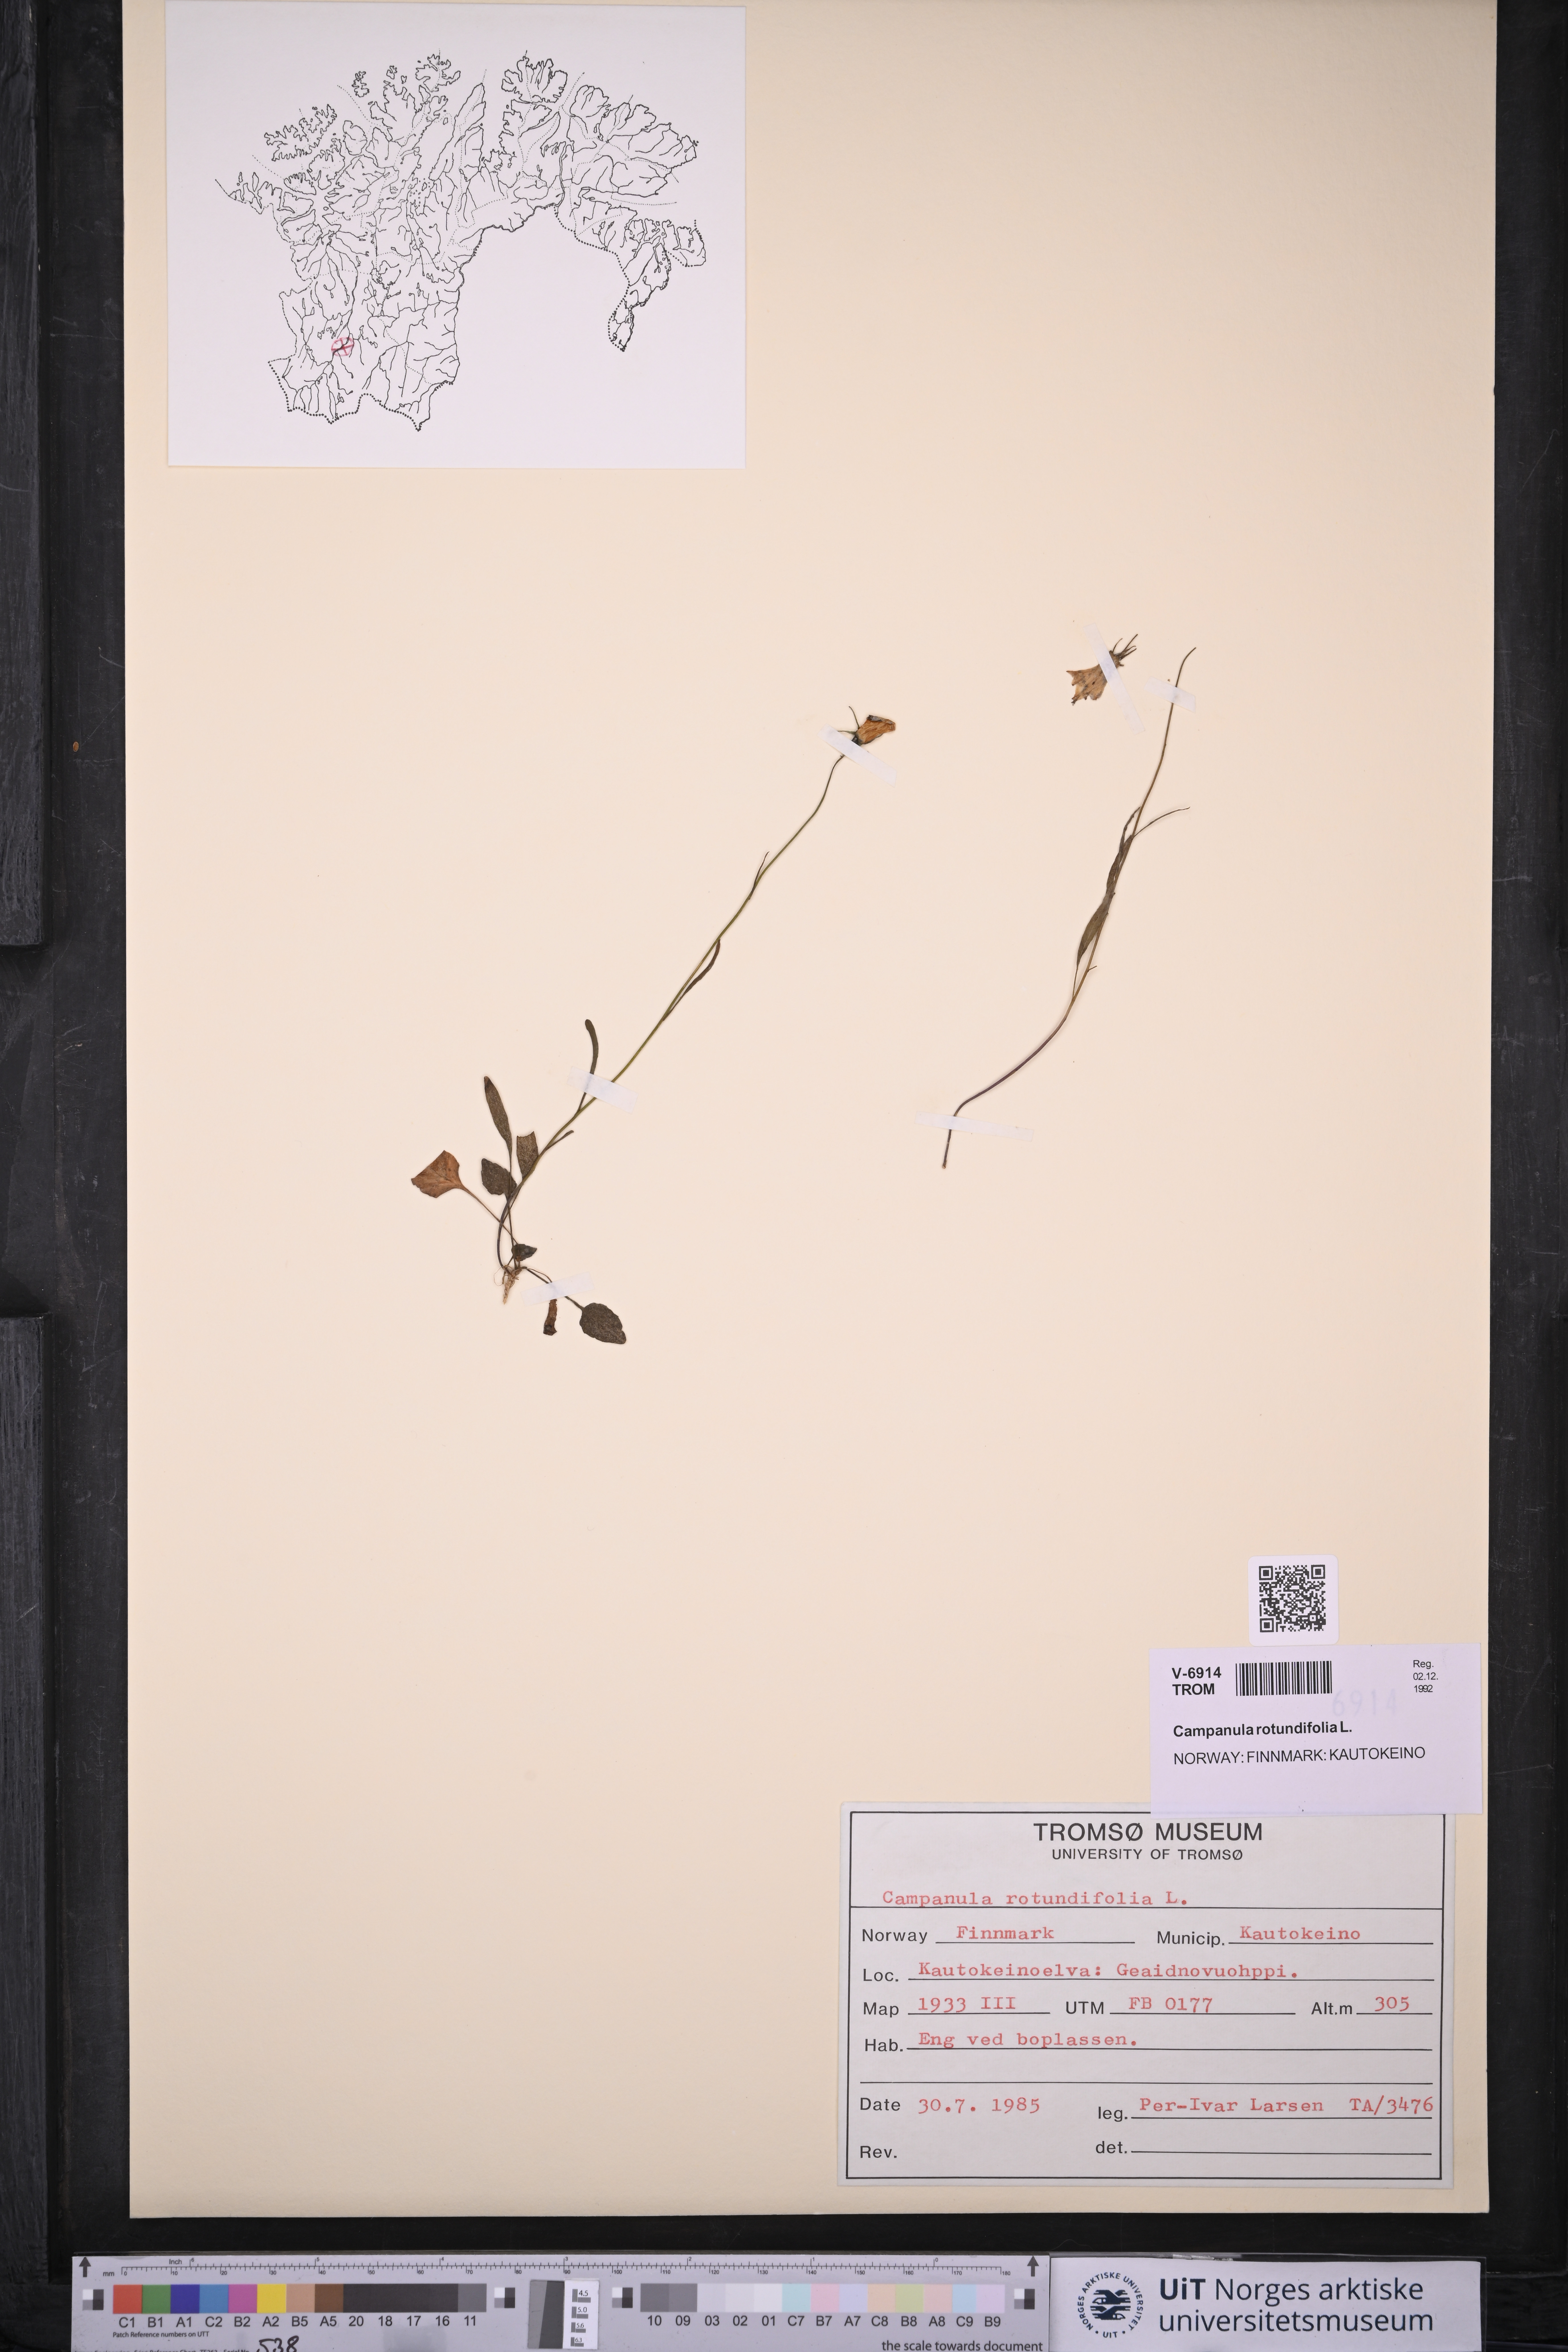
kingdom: Plantae
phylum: Tracheophyta
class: Magnoliopsida
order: Asterales
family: Campanulaceae
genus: Campanula
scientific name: Campanula rotundifolia
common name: Harebell
